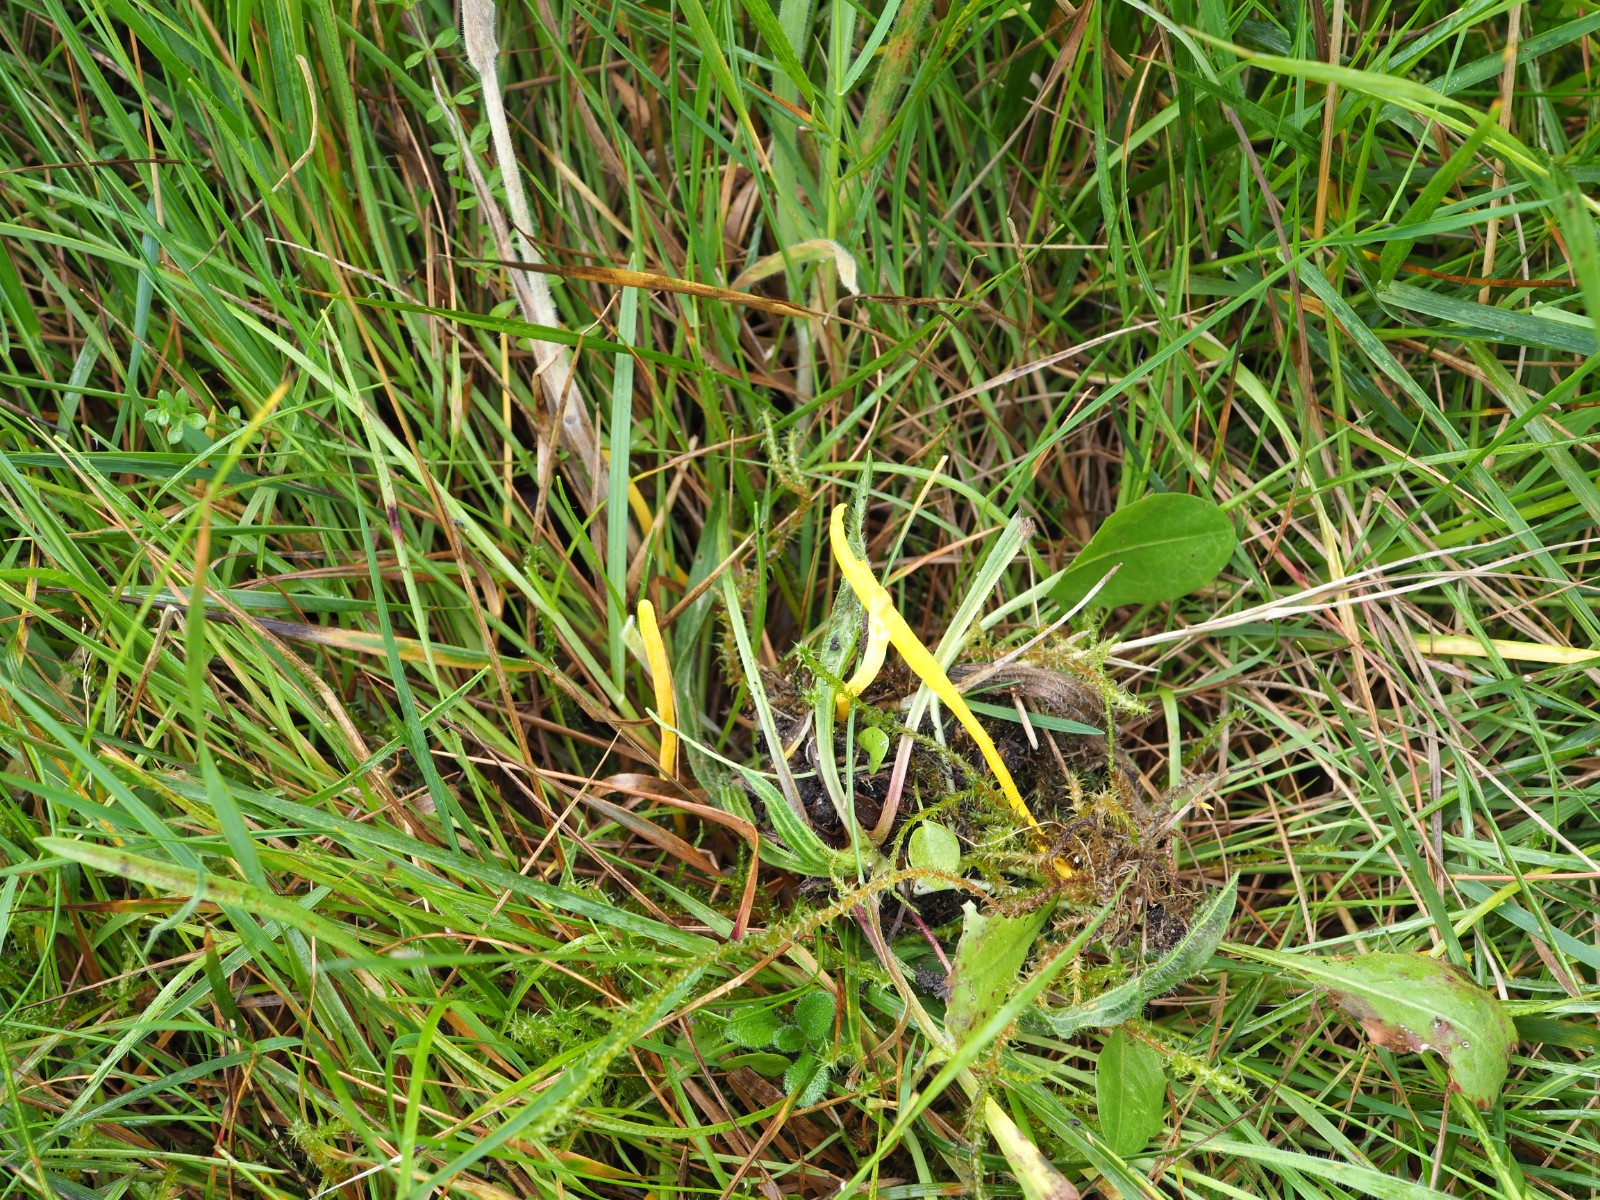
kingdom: Fungi
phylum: Basidiomycota
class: Agaricomycetes
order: Agaricales
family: Clavariaceae
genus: Clavulinopsis
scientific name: Clavulinopsis helvola
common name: orangegul køllesvamp
